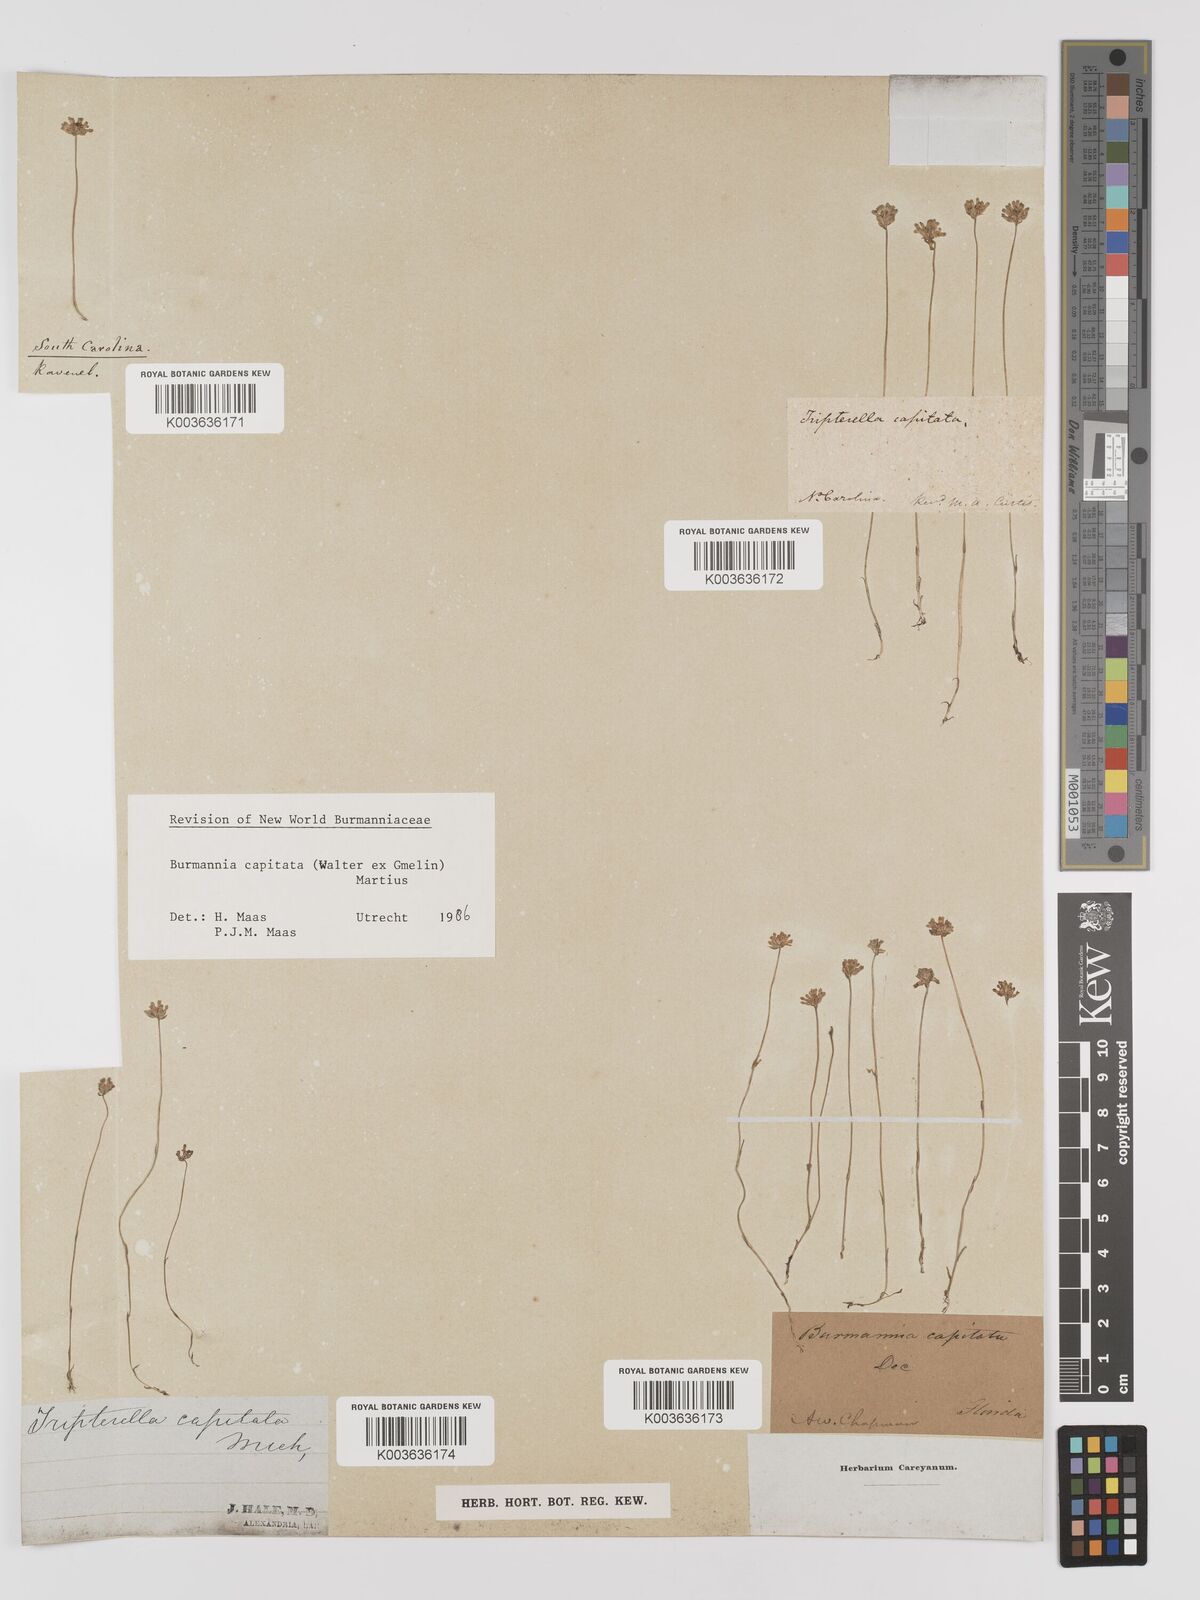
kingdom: Plantae
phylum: Tracheophyta
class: Liliopsida
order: Dioscoreales
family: Burmanniaceae
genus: Burmannia
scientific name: Burmannia capitata
